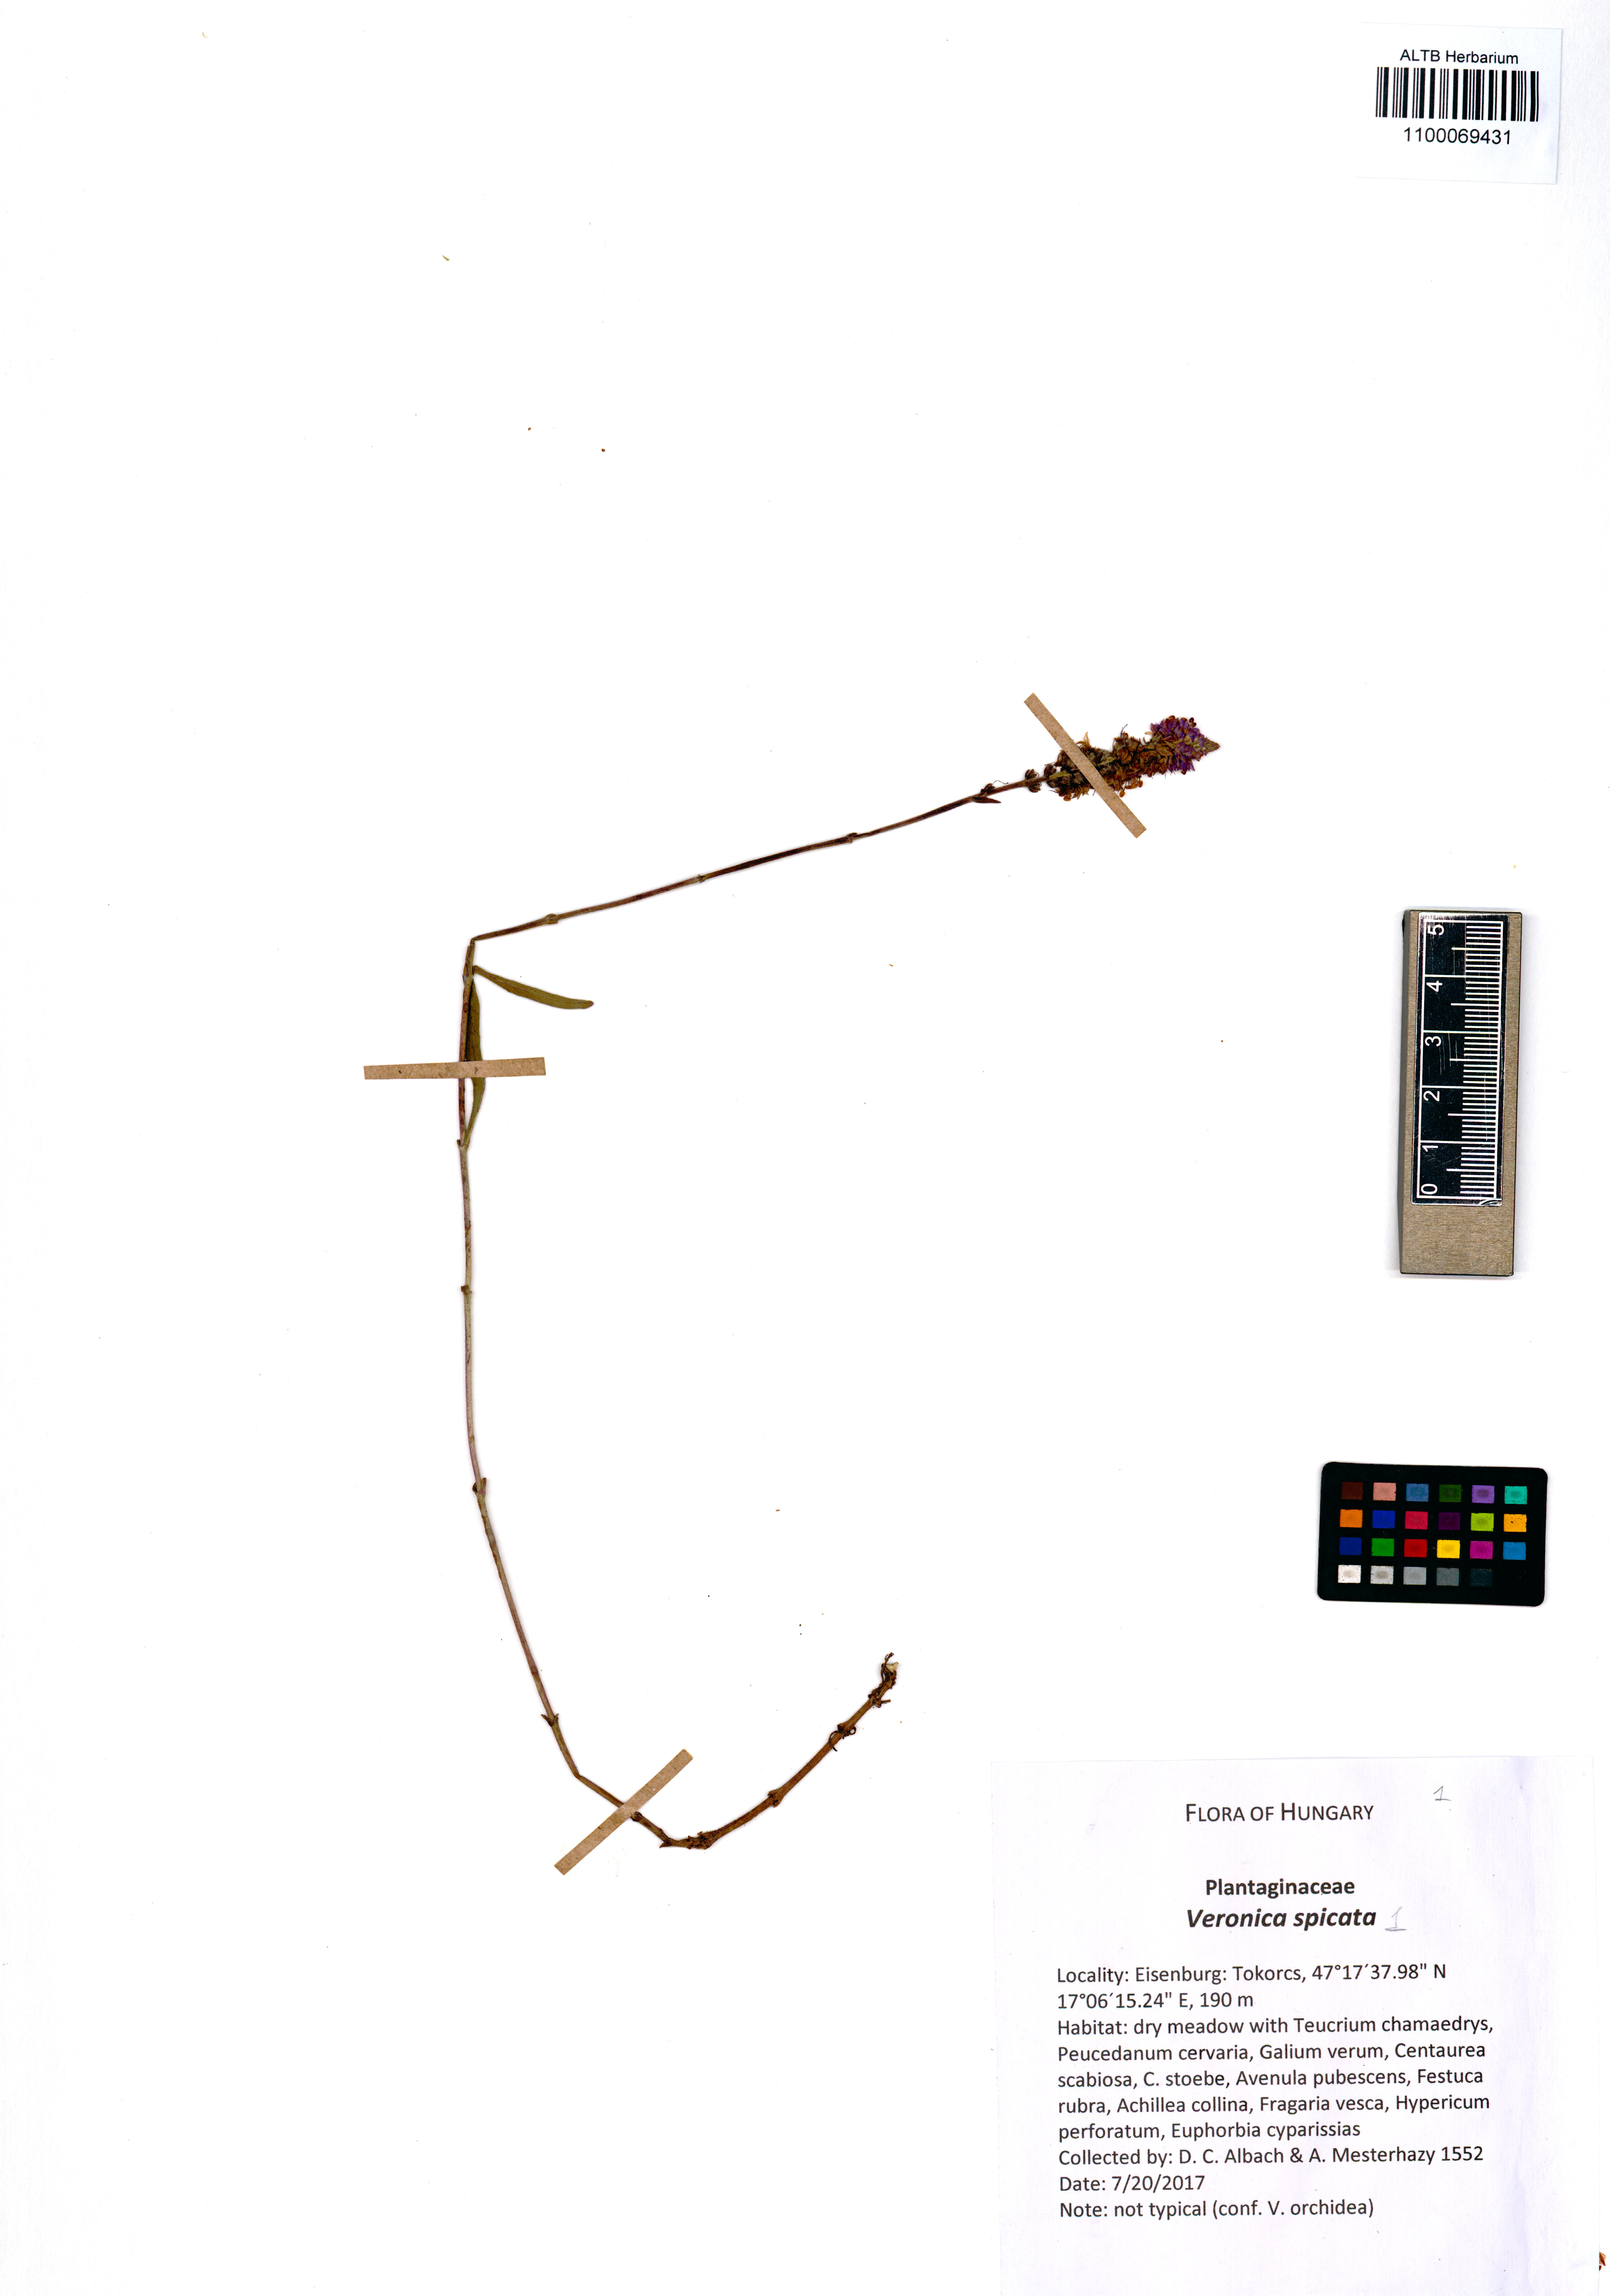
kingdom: Plantae
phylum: Tracheophyta
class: Magnoliopsida
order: Lamiales
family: Plantaginaceae
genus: Veronica
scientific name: Veronica spicata
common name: Spiked speedwell
